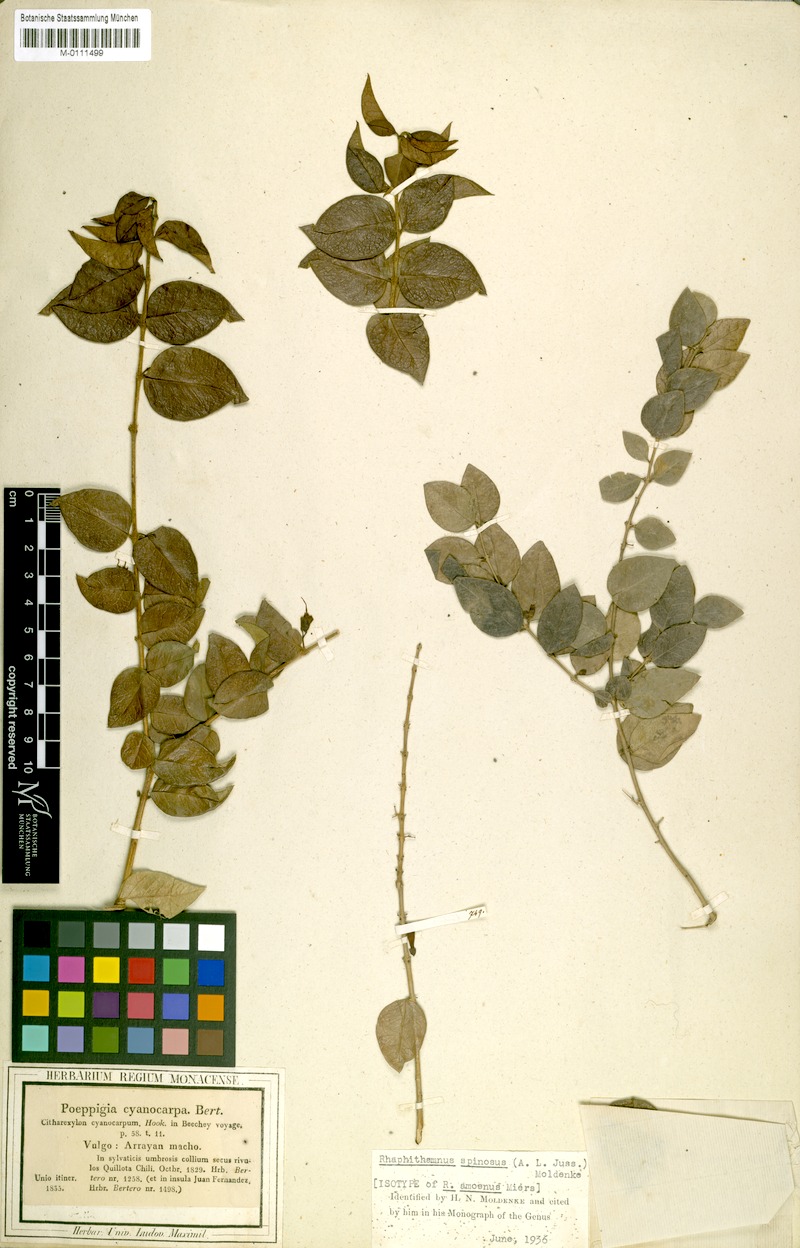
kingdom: Plantae
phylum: Tracheophyta
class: Magnoliopsida
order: Lamiales
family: Verbenaceae
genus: Rhaphithamnus
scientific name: Rhaphithamnus spinosus
